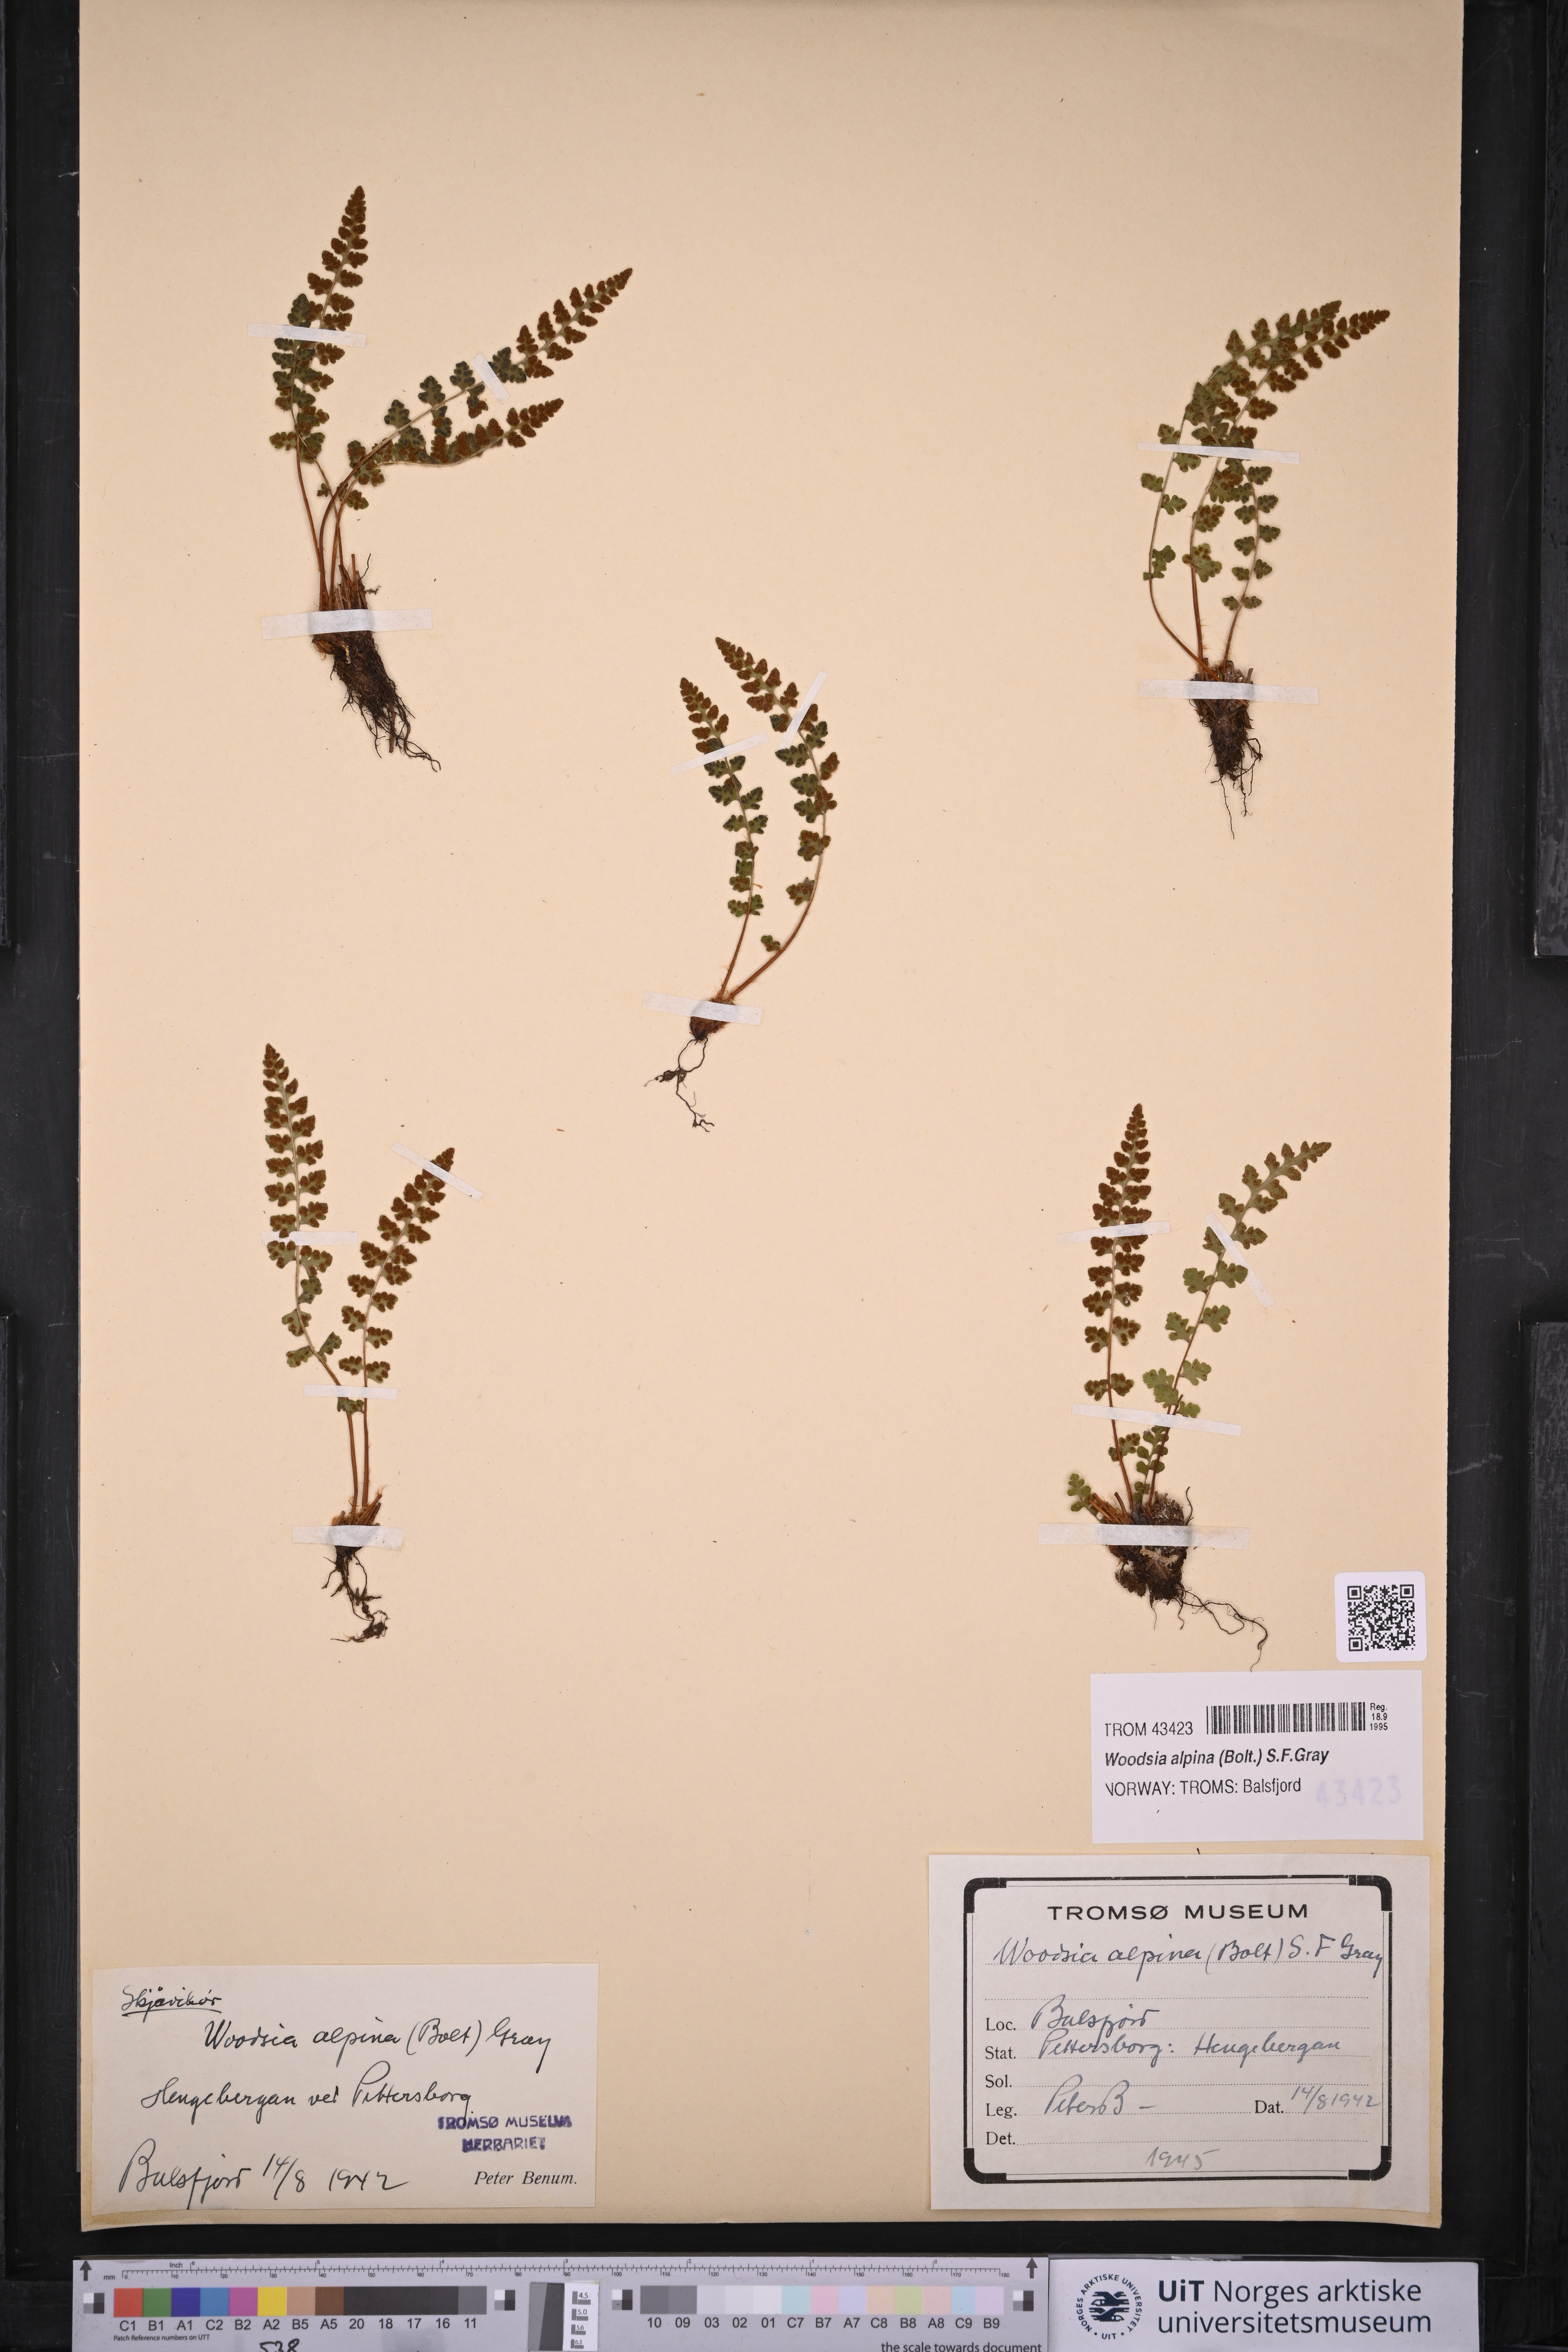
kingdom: Plantae
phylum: Tracheophyta
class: Polypodiopsida
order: Polypodiales
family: Woodsiaceae
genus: Woodsia
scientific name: Woodsia alpina
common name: Alpine woodsia
